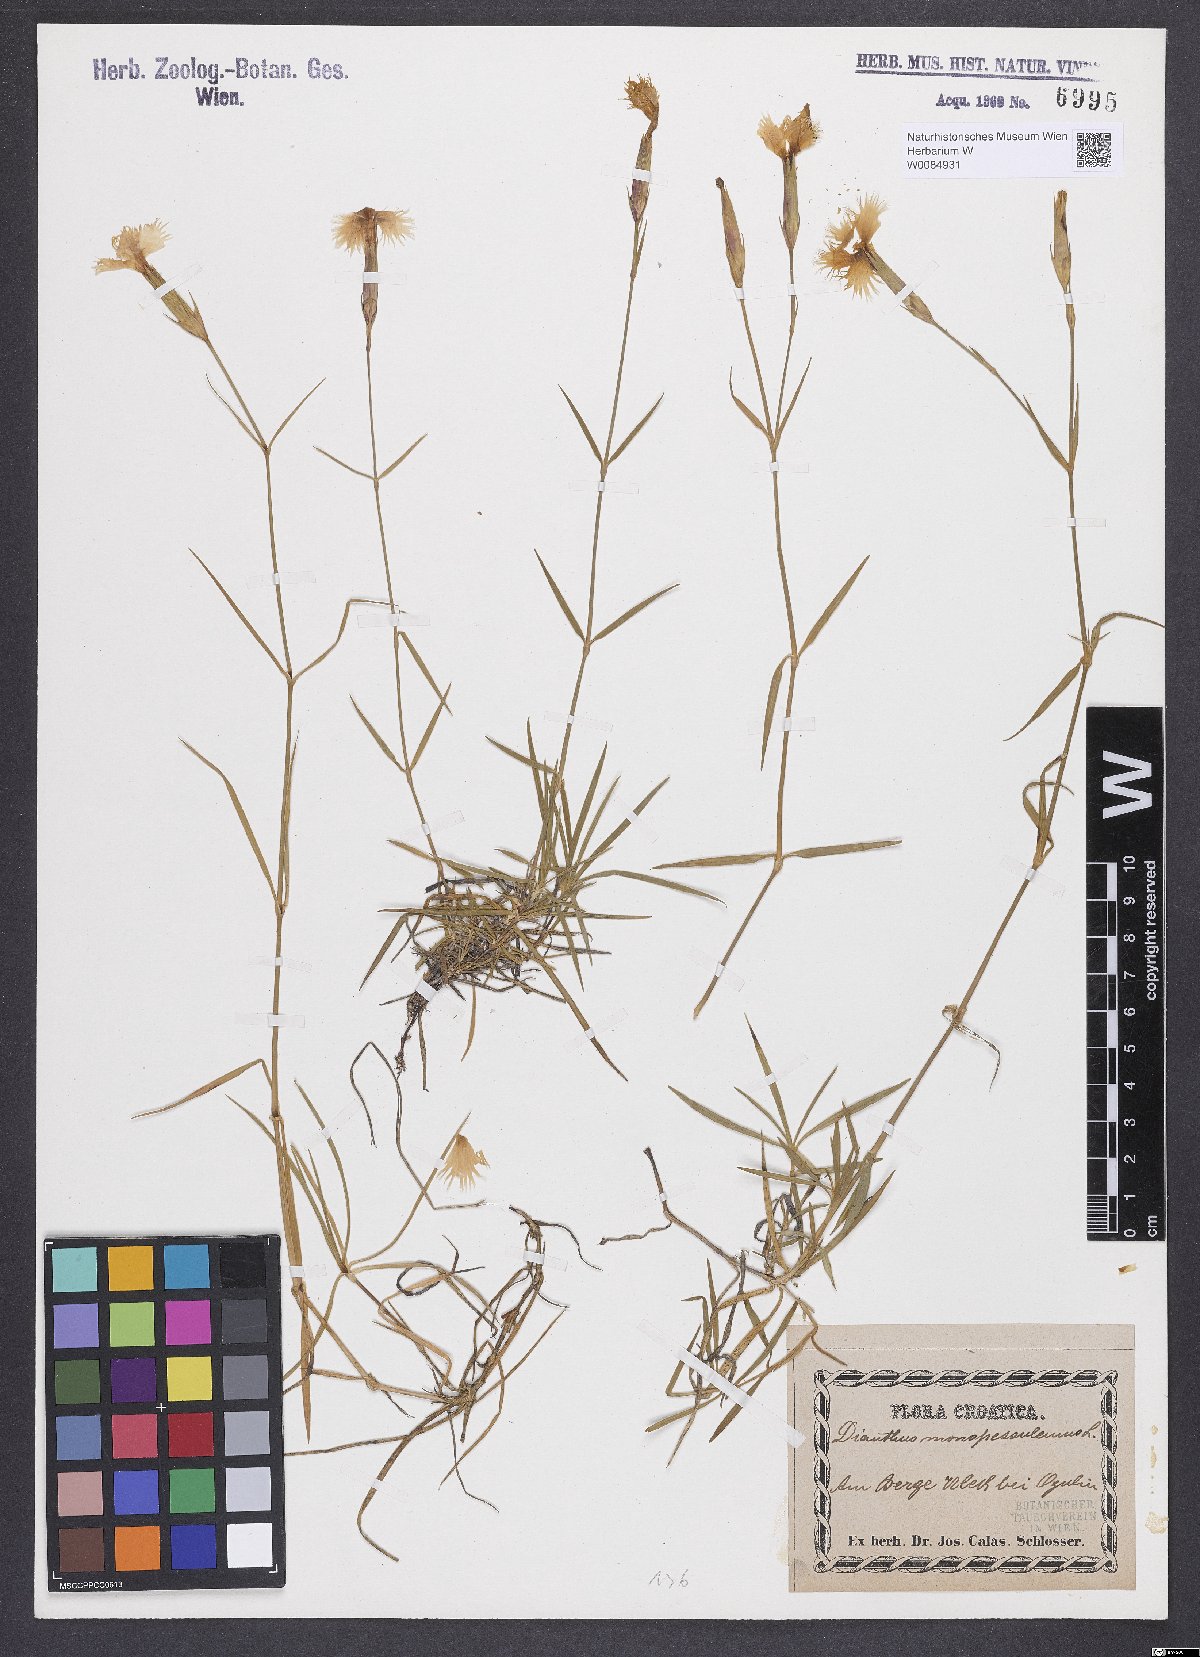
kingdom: Plantae
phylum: Tracheophyta
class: Magnoliopsida
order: Caryophyllales
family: Caryophyllaceae
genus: Dianthus
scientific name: Dianthus hyssopifolius
